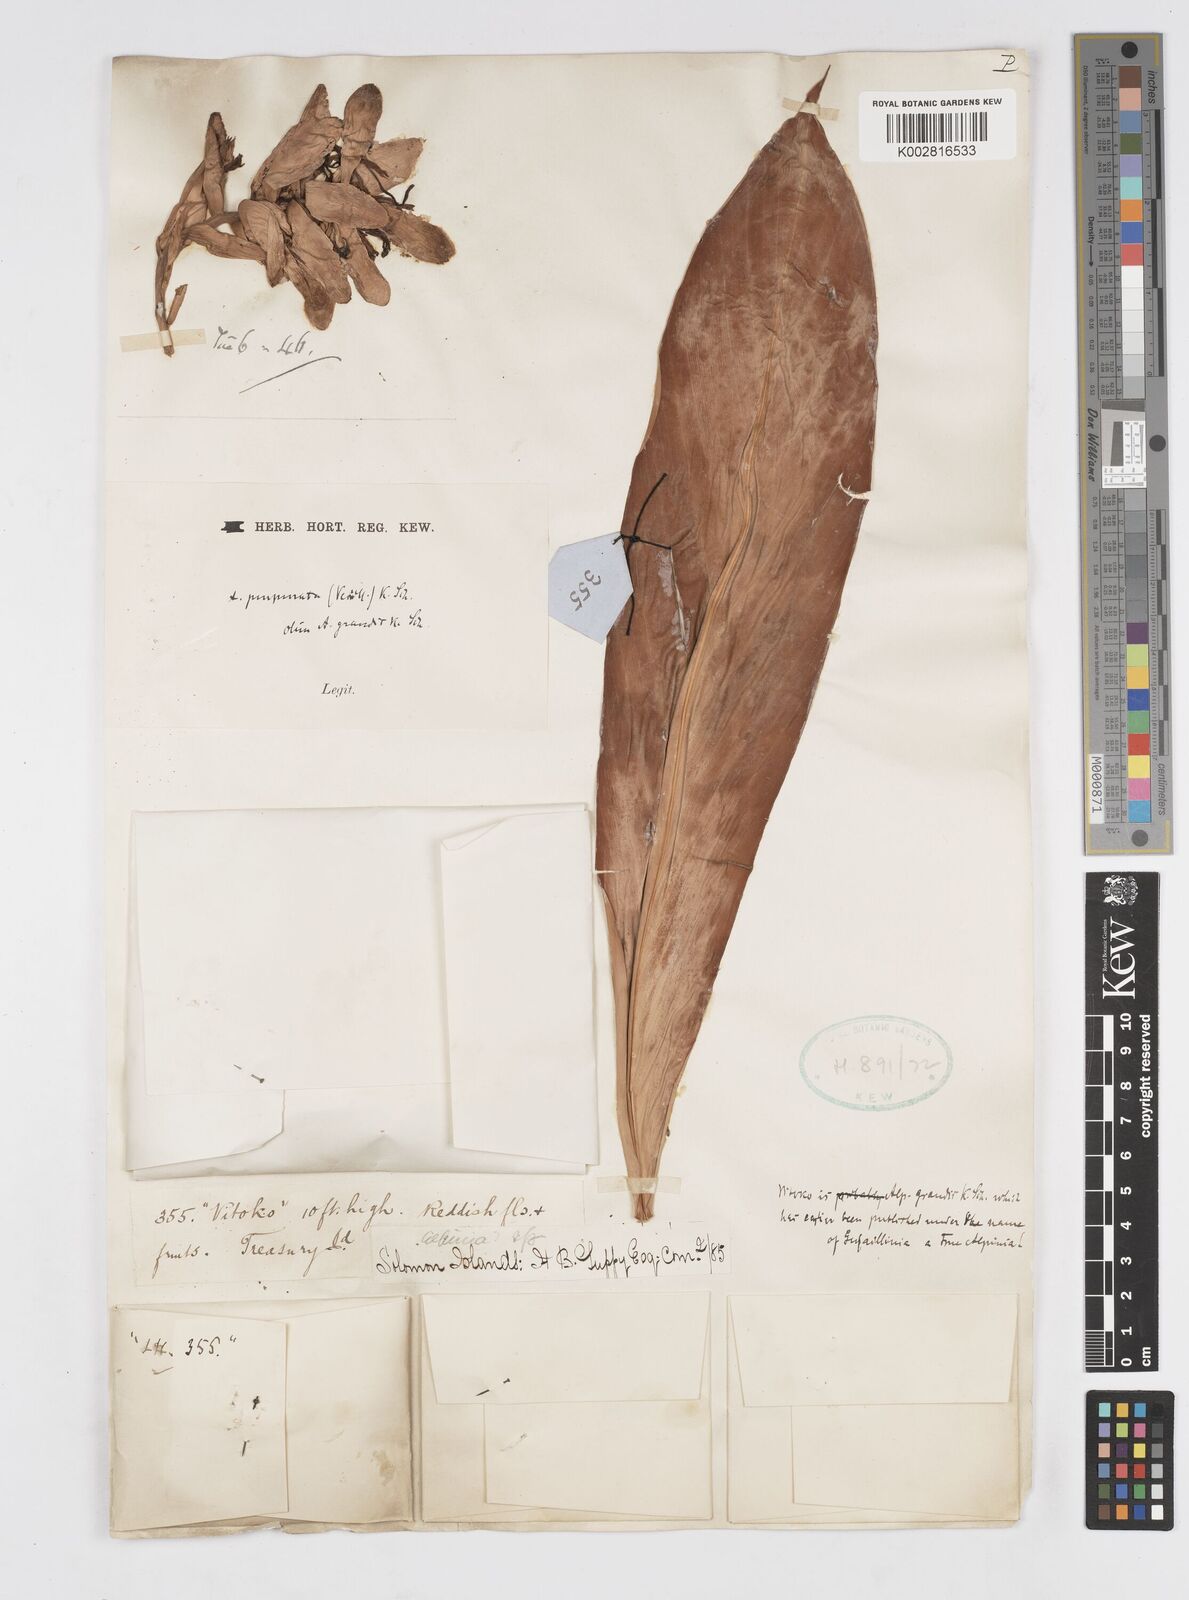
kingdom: Plantae
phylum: Tracheophyta
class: Liliopsida
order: Zingiberales
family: Zingiberaceae
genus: Alpinia
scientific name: Alpinia purpurata
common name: Red ginger
